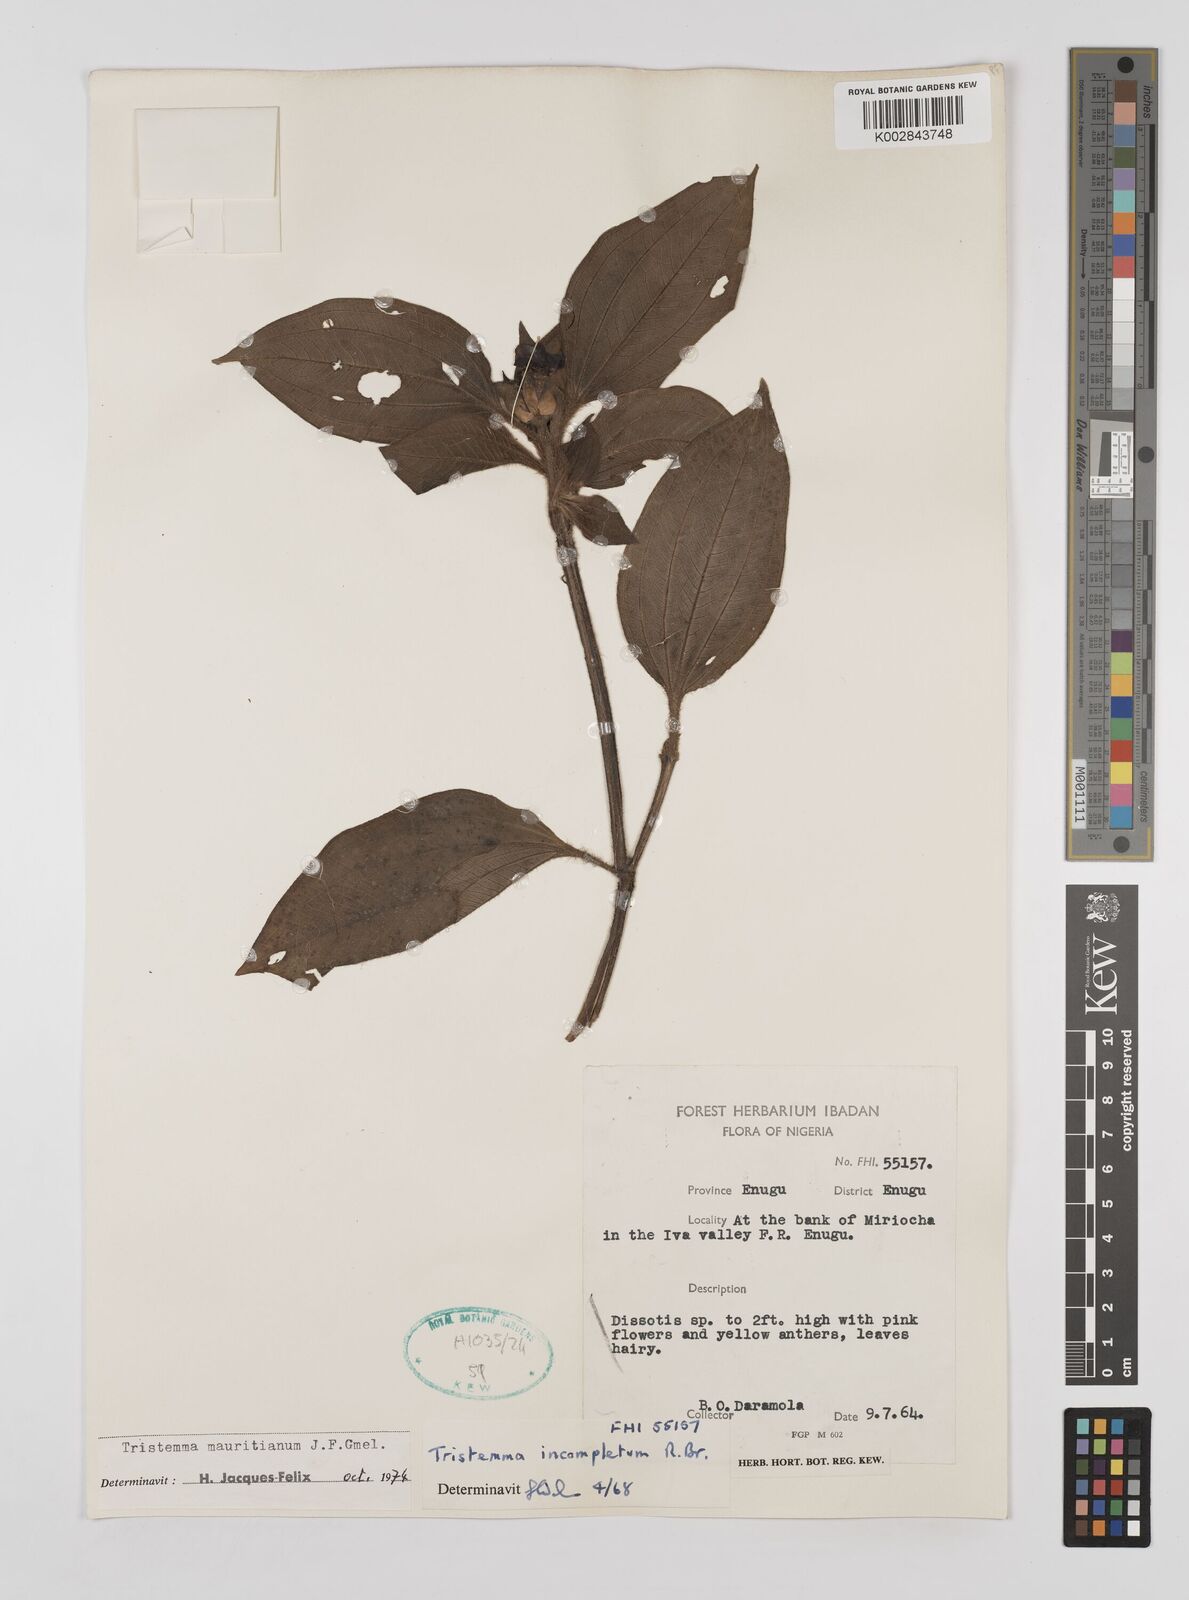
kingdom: Plantae
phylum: Tracheophyta
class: Magnoliopsida
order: Myrtales
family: Melastomataceae
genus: Tristemma
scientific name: Tristemma mauritianum
